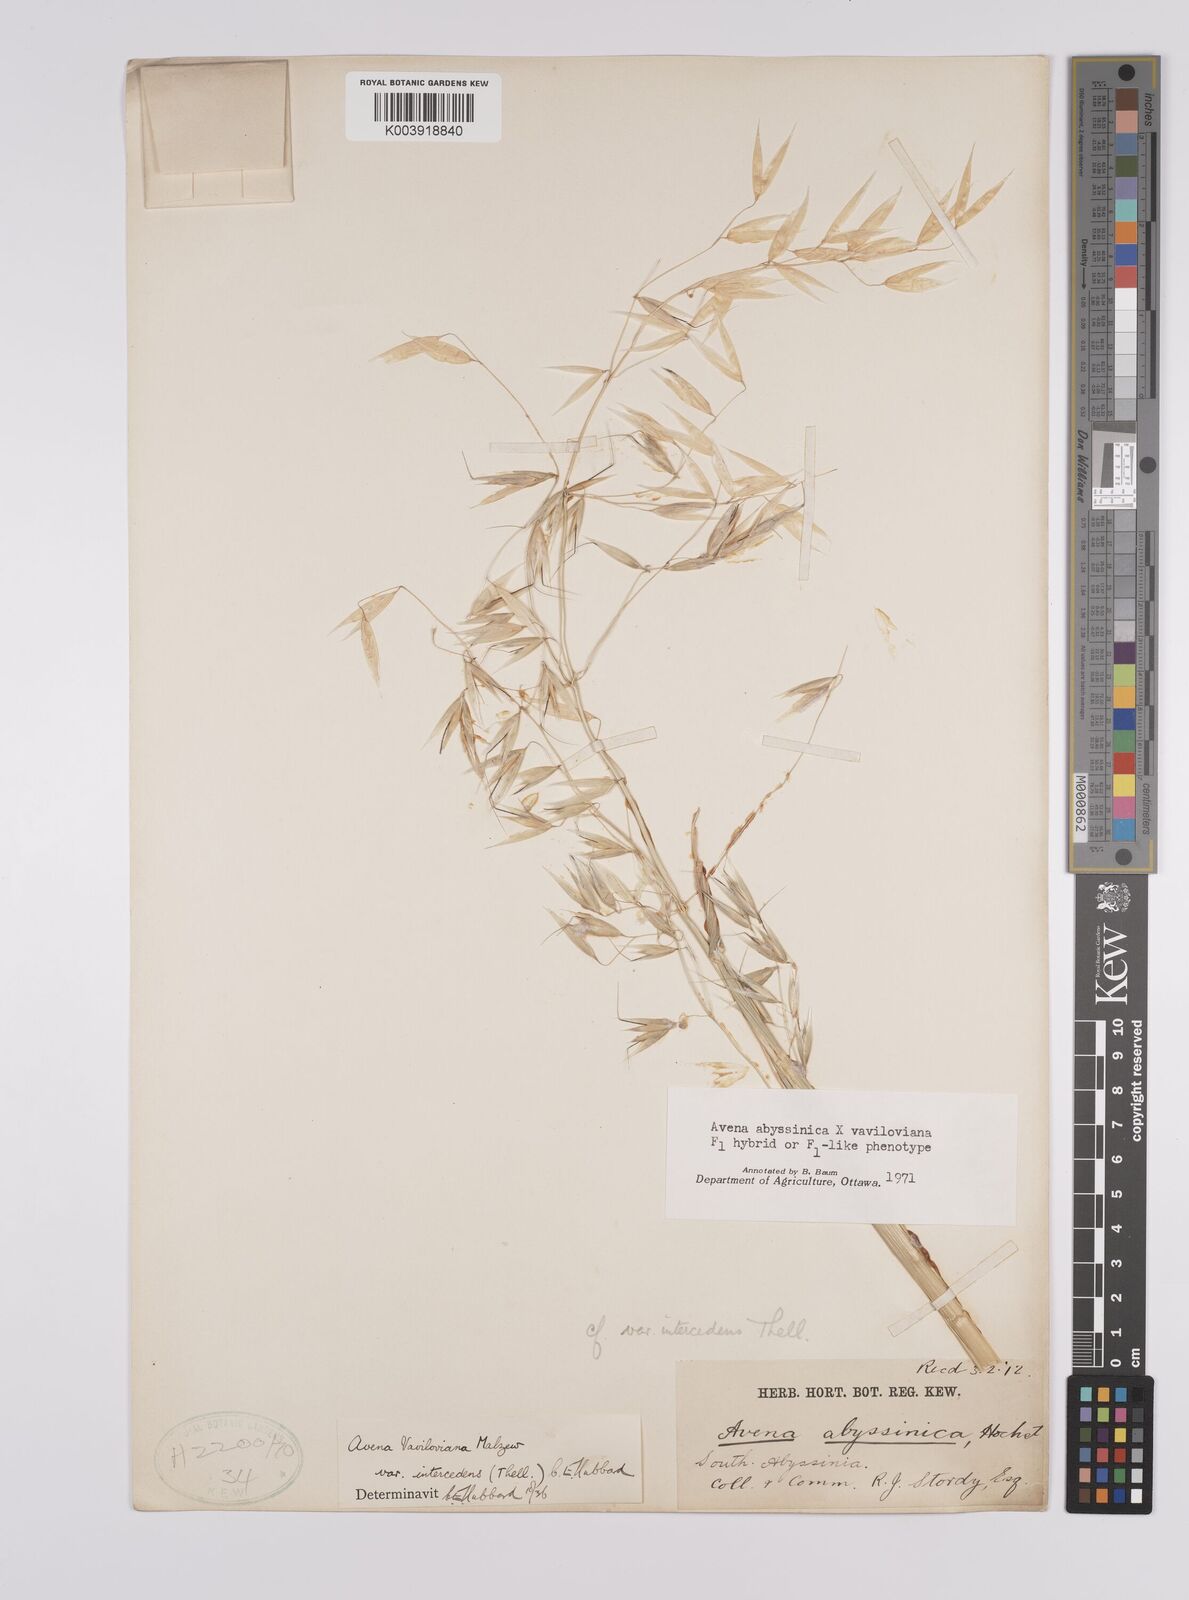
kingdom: Plantae
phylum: Tracheophyta
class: Liliopsida
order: Poales
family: Poaceae
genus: Avena
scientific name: Avena abyssinica
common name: Ethiopian oat
